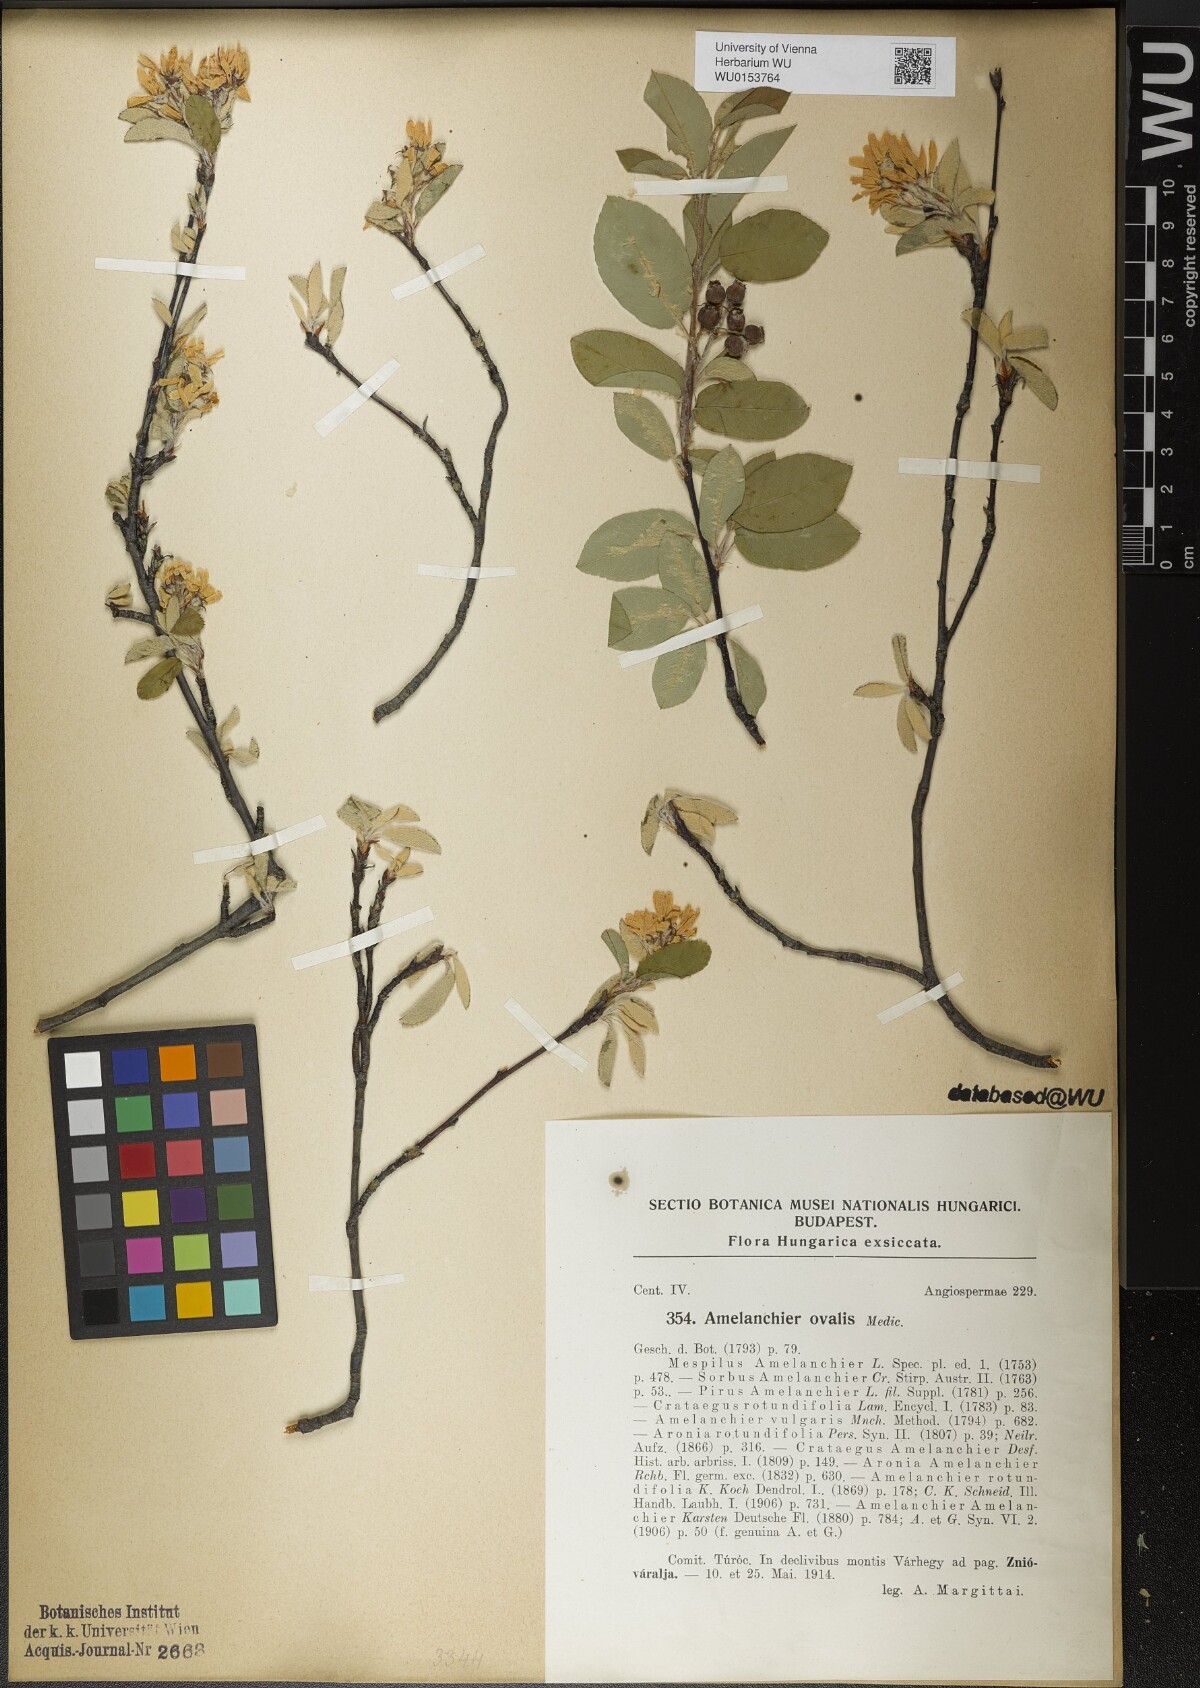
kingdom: Plantae
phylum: Tracheophyta
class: Magnoliopsida
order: Rosales
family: Rosaceae
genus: Amelanchier
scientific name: Amelanchier ovalis
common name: Serviceberry
